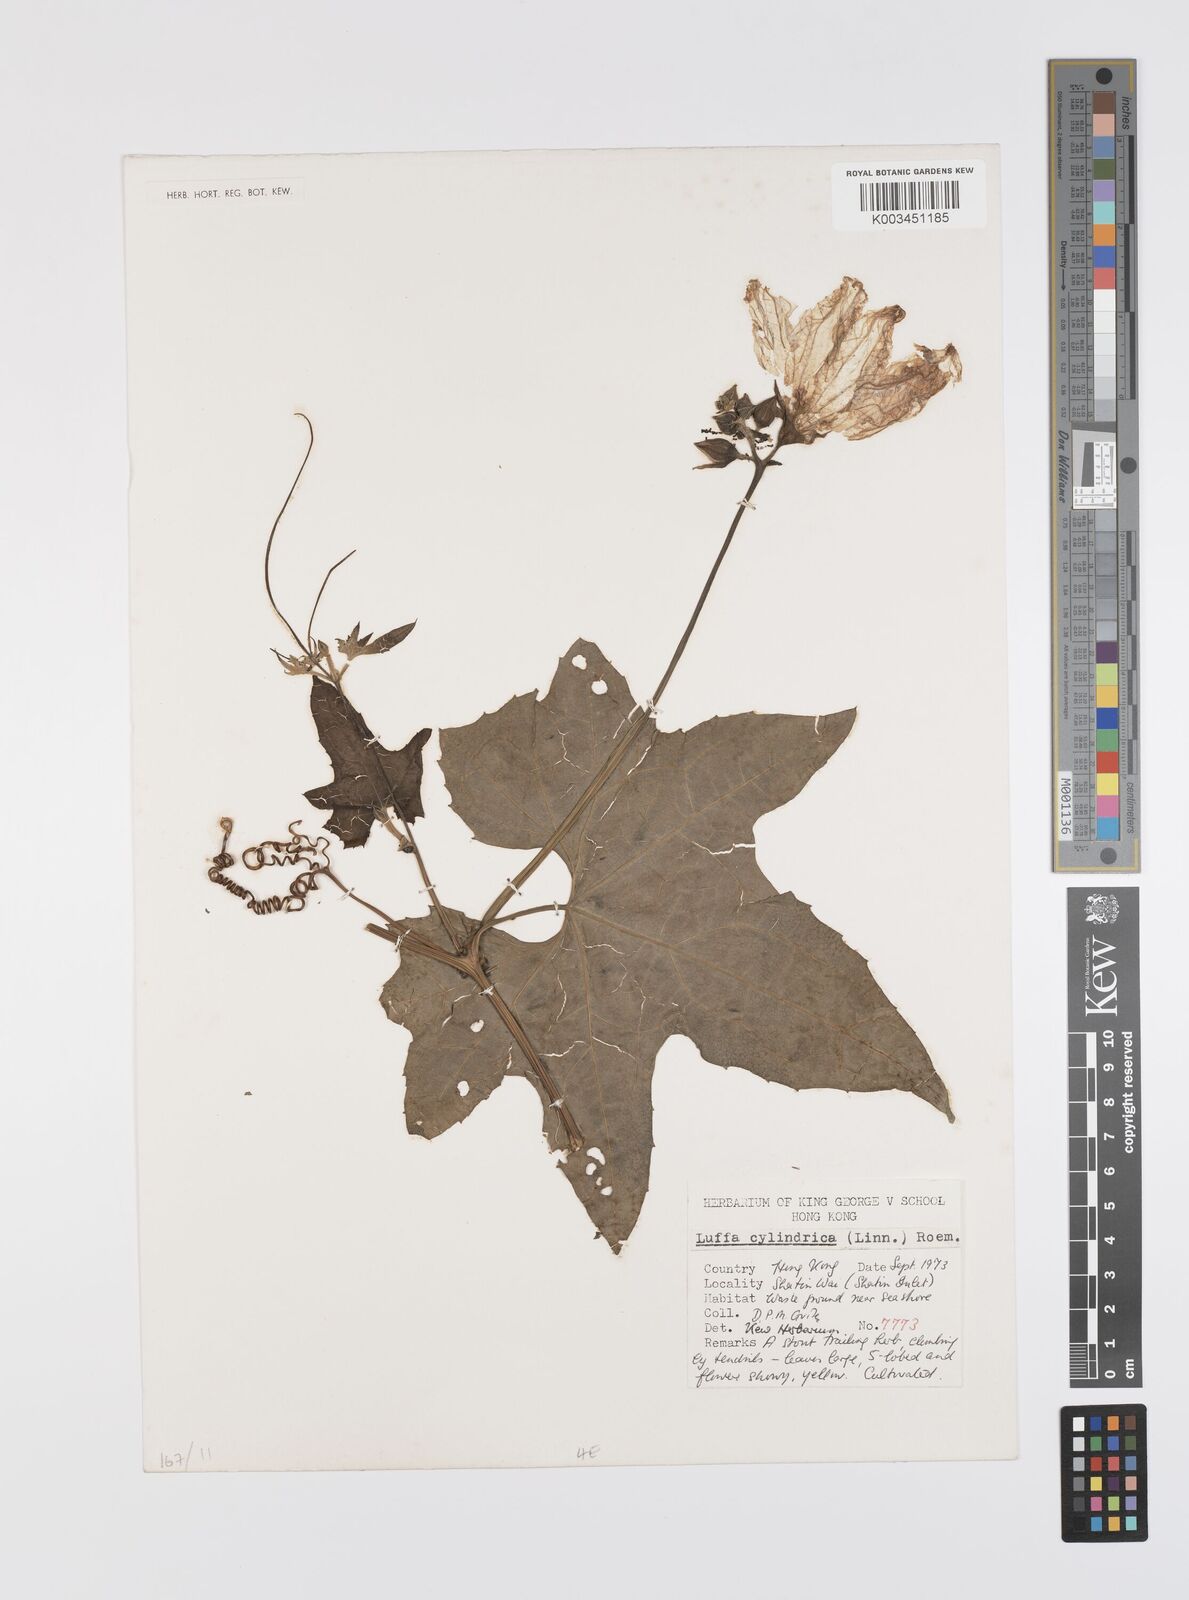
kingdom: Plantae
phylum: Tracheophyta
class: Magnoliopsida
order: Cucurbitales
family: Cucurbitaceae
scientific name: Cucurbitaceae
